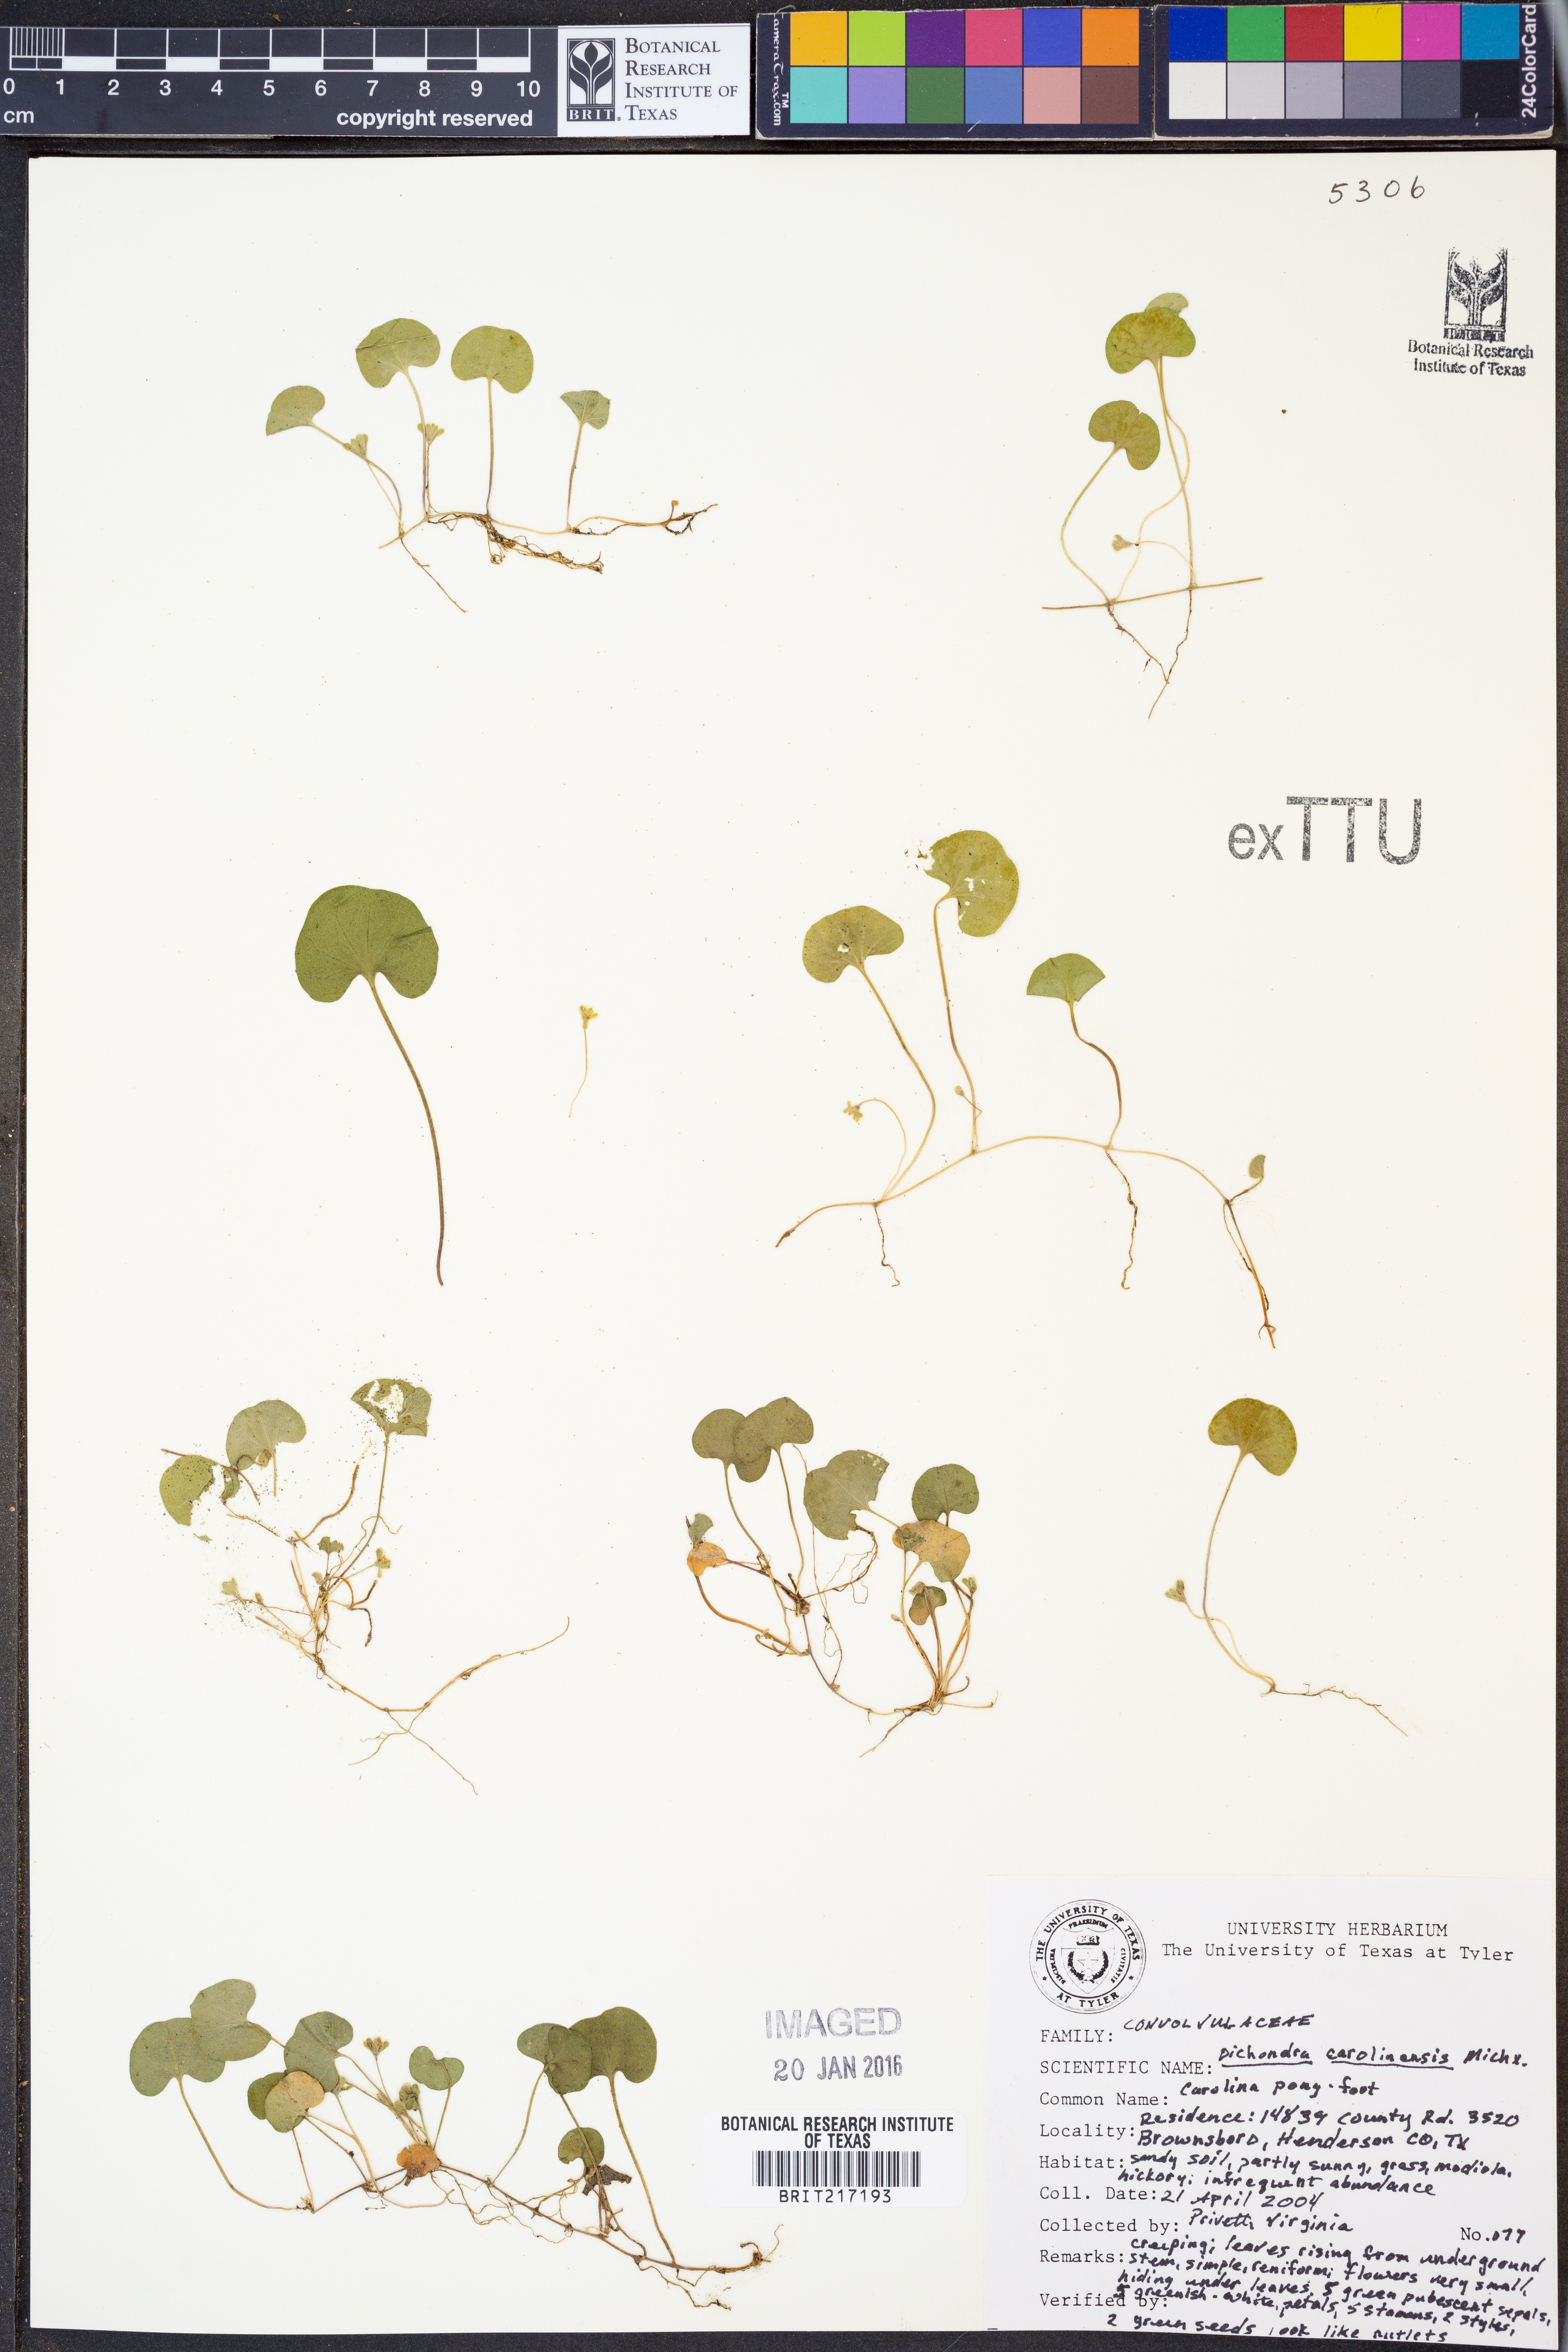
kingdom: Plantae
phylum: Tracheophyta
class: Magnoliopsida
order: Solanales
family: Convolvulaceae
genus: Dichondra
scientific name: Dichondra carolinensis
